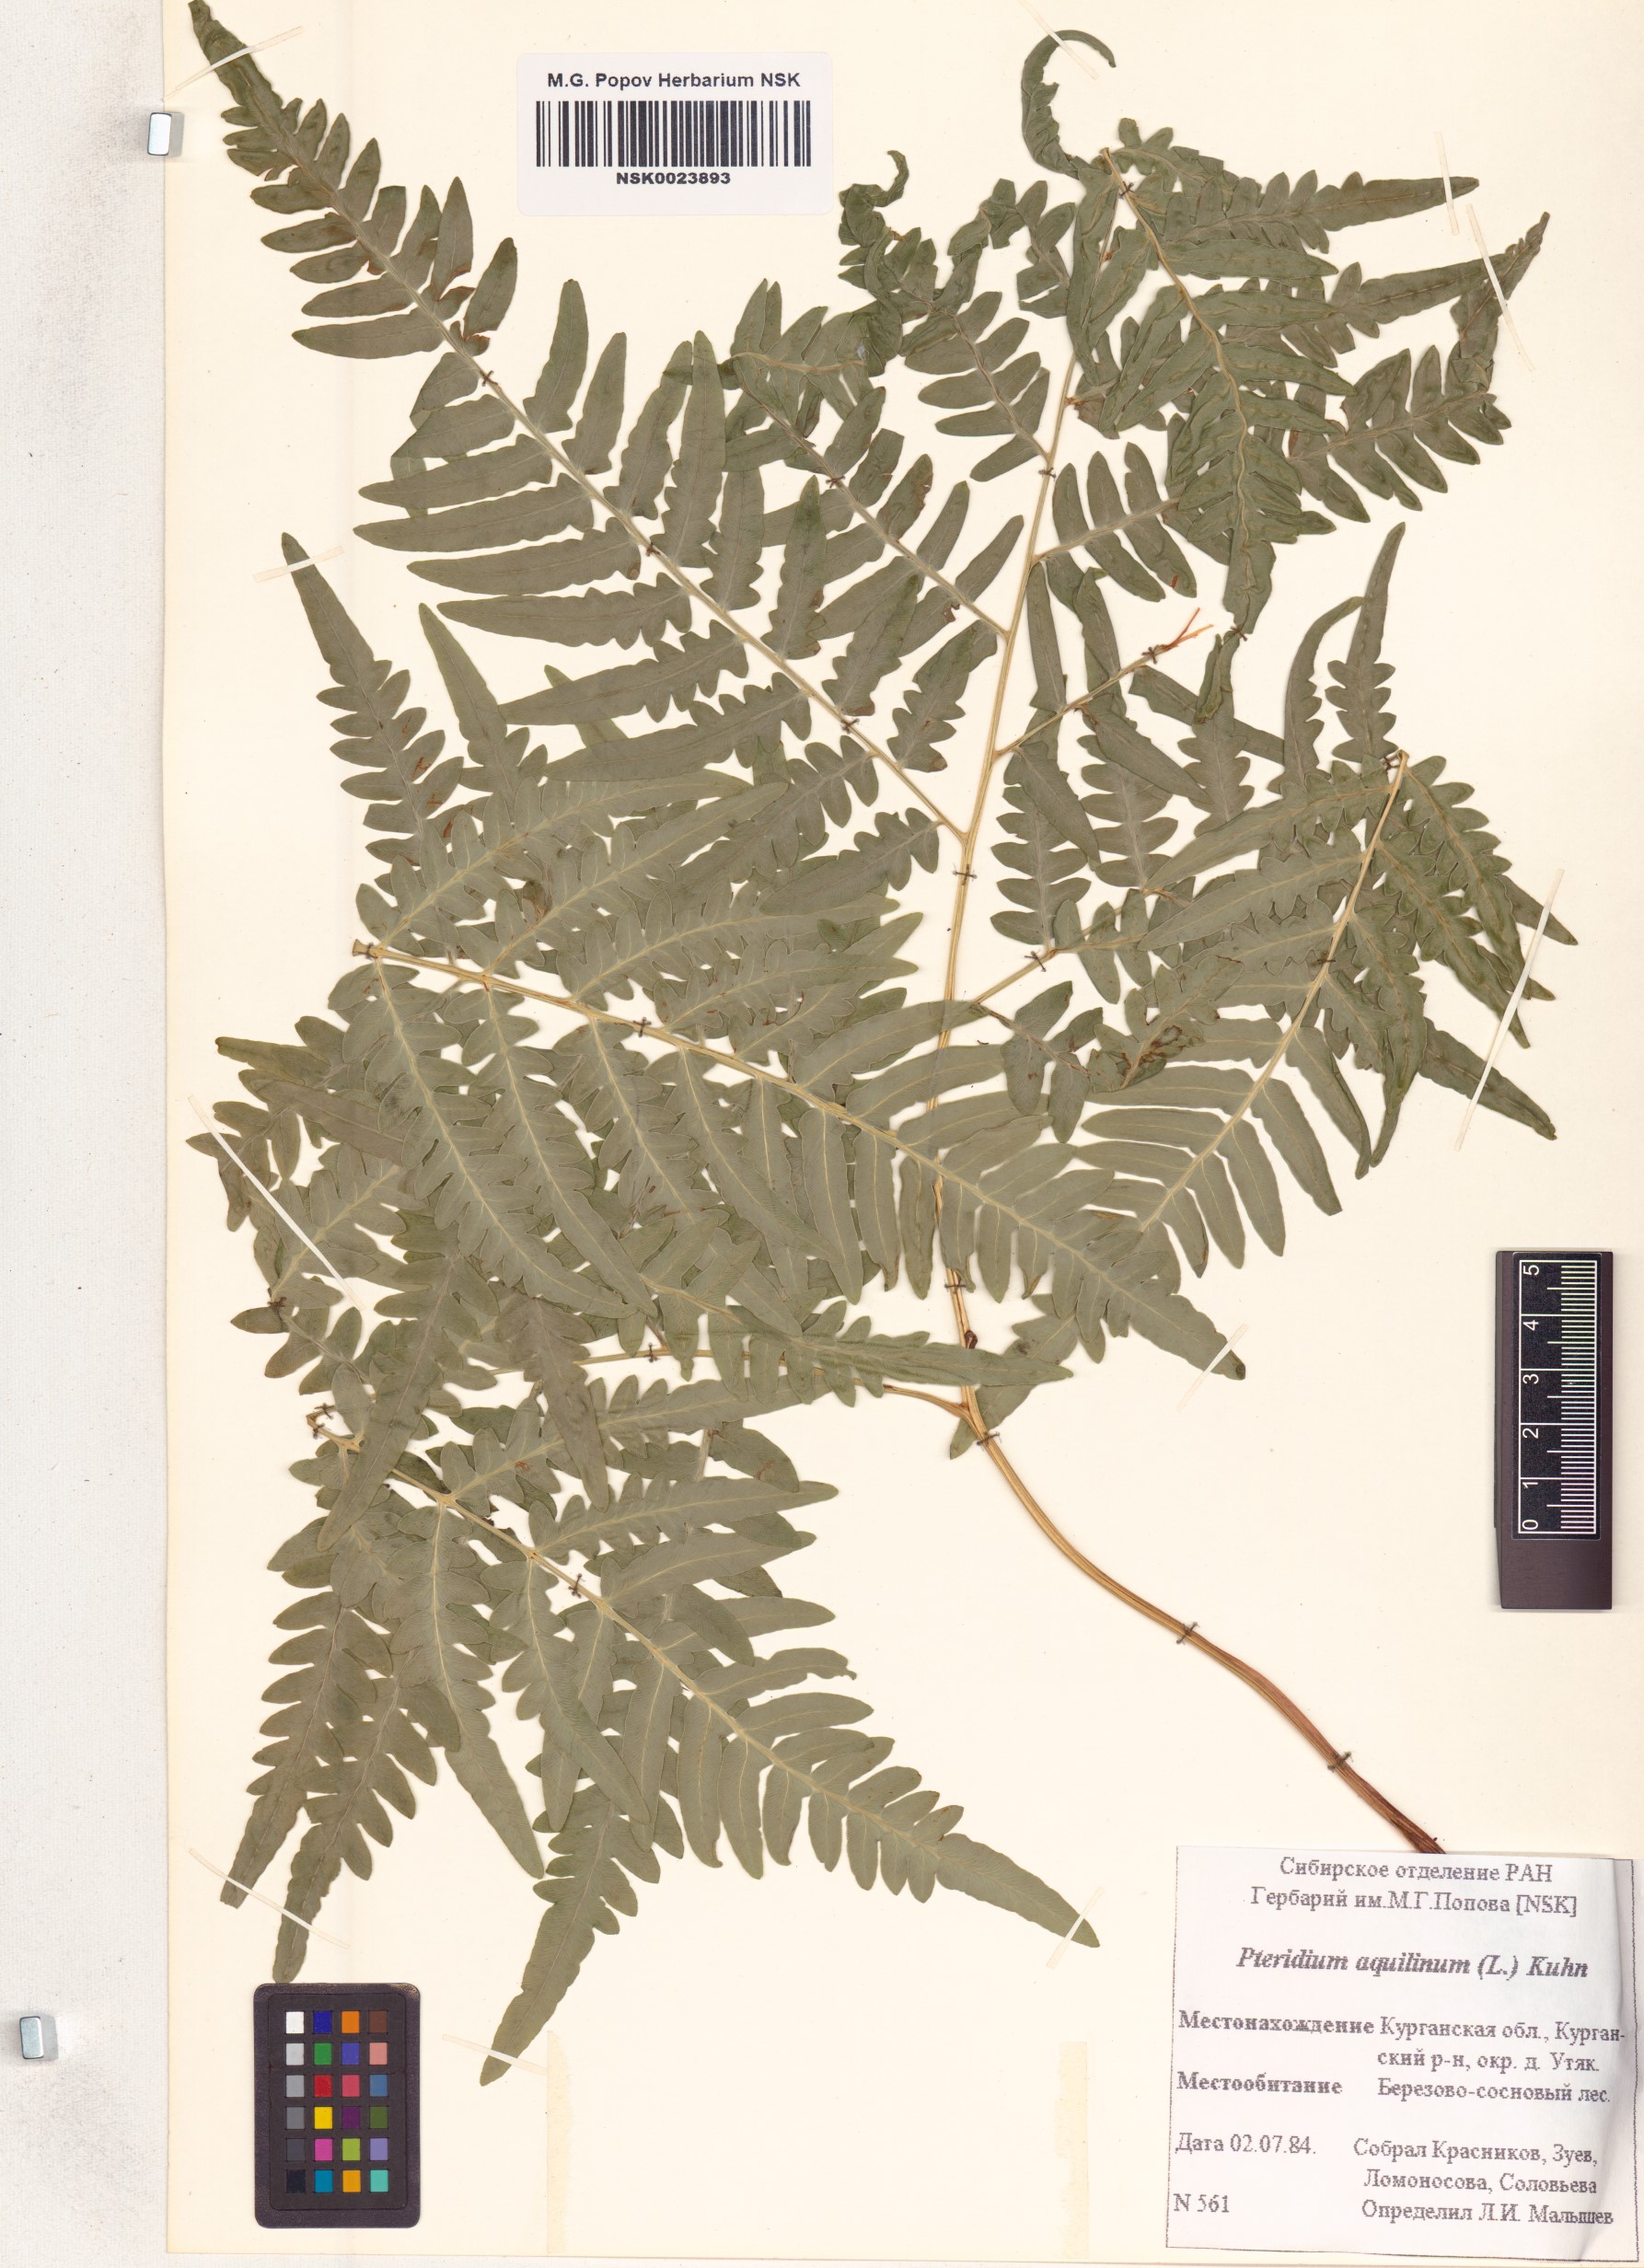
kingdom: Plantae
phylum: Tracheophyta
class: Polypodiopsida
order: Polypodiales
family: Dennstaedtiaceae
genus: Pteridium
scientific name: Pteridium aquilinum
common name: Bracken
